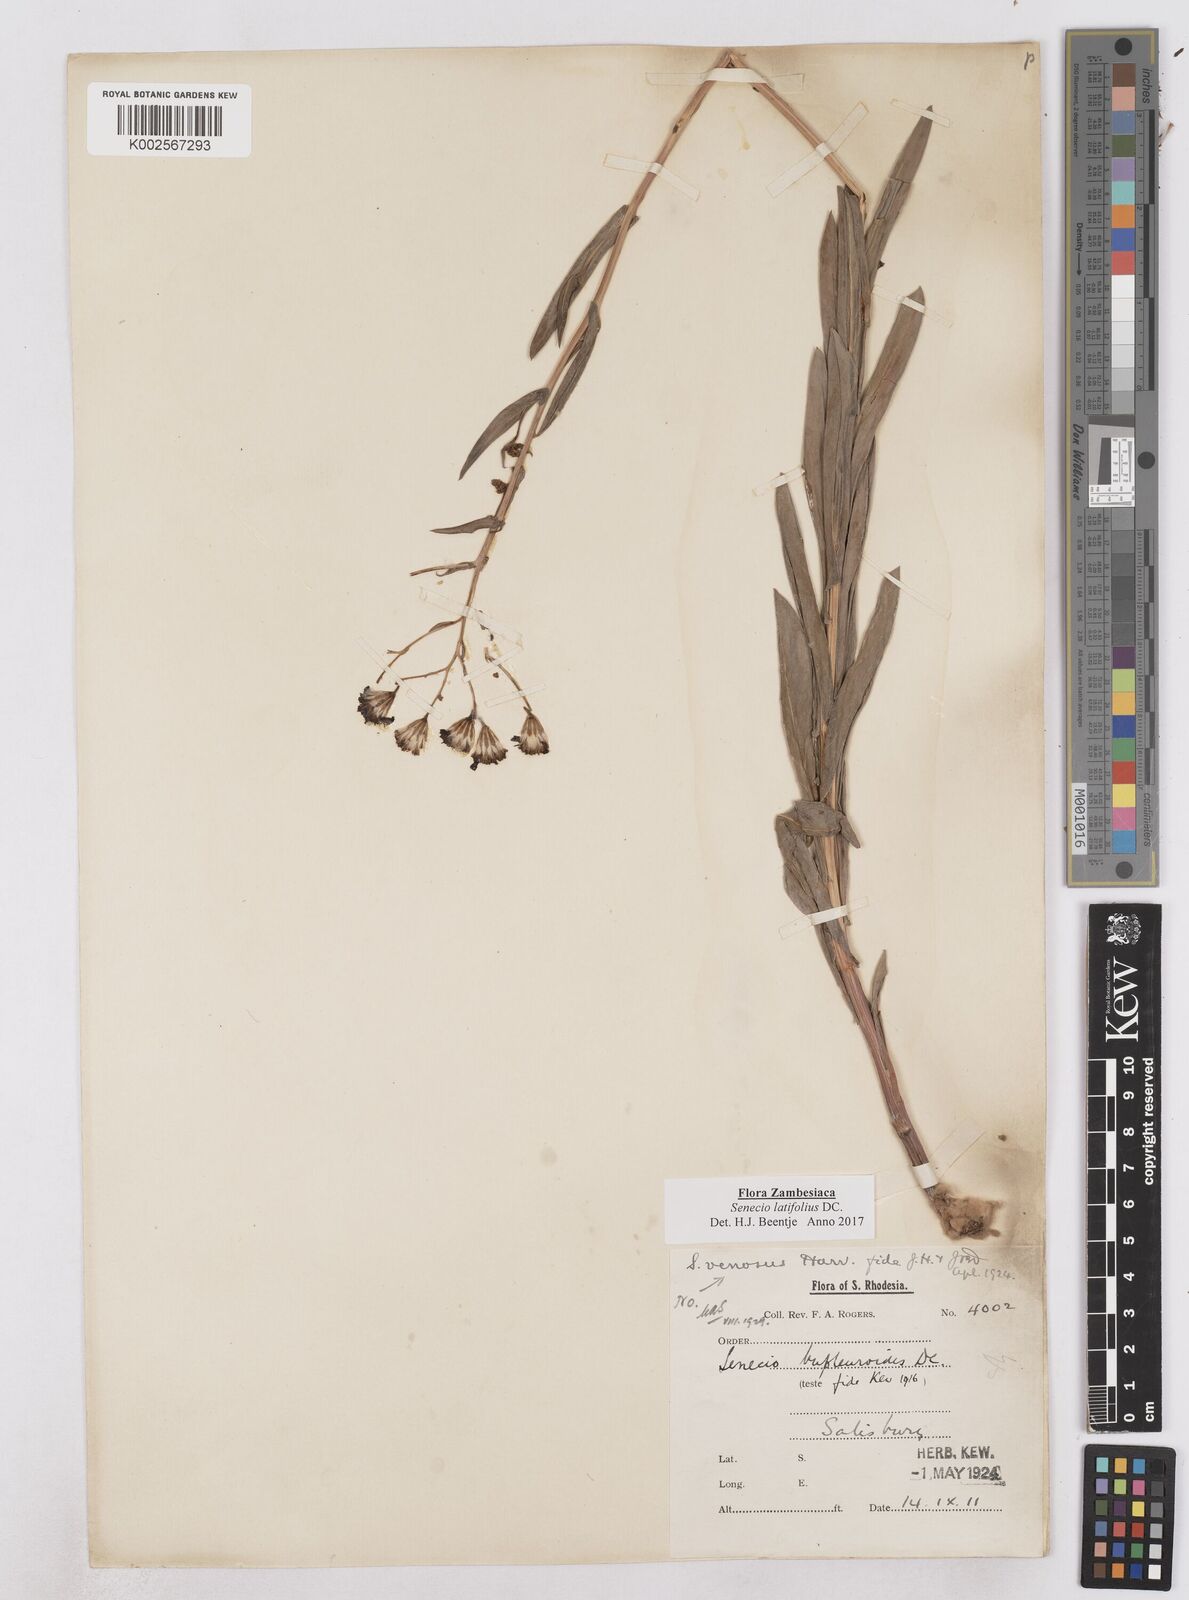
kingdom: Plantae
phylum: Tracheophyta
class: Magnoliopsida
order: Asterales
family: Asteraceae
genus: Senecio
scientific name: Senecio latifolius
